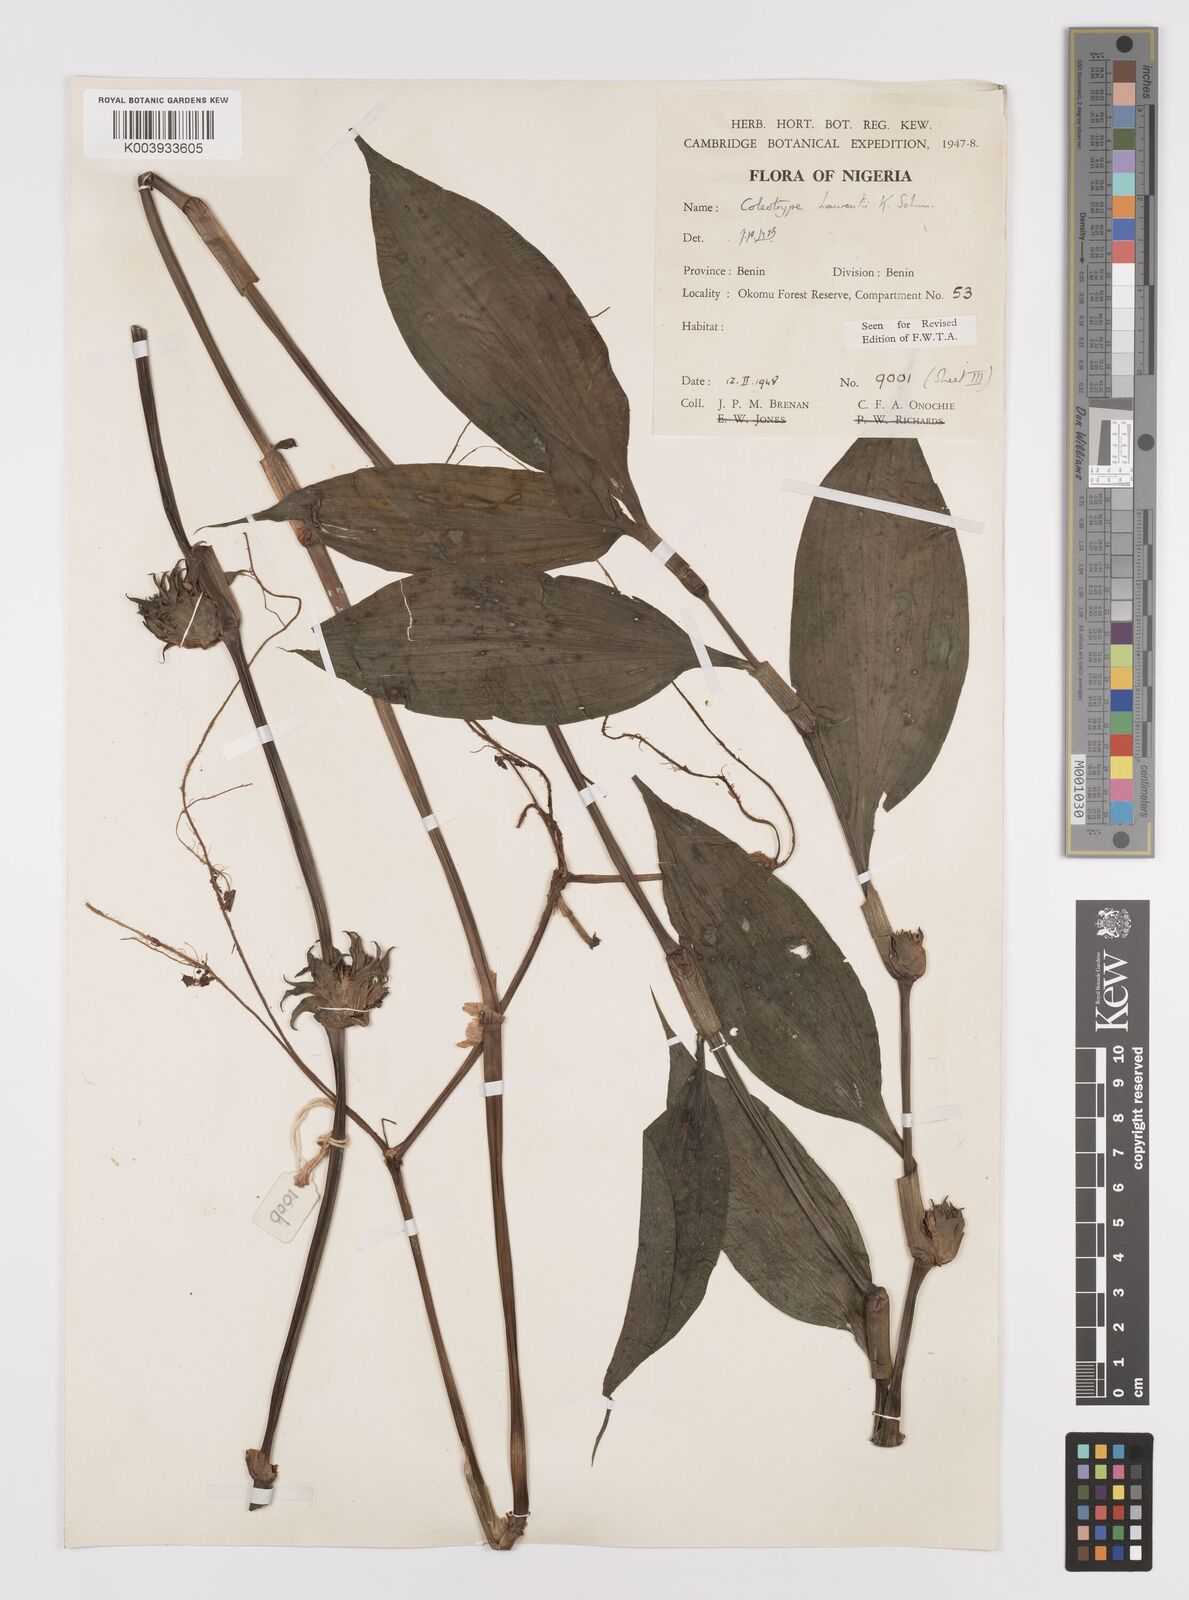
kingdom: Plantae
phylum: Tracheophyta
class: Liliopsida
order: Commelinales
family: Commelinaceae
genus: Coleotrype
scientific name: Coleotrype laurentii
